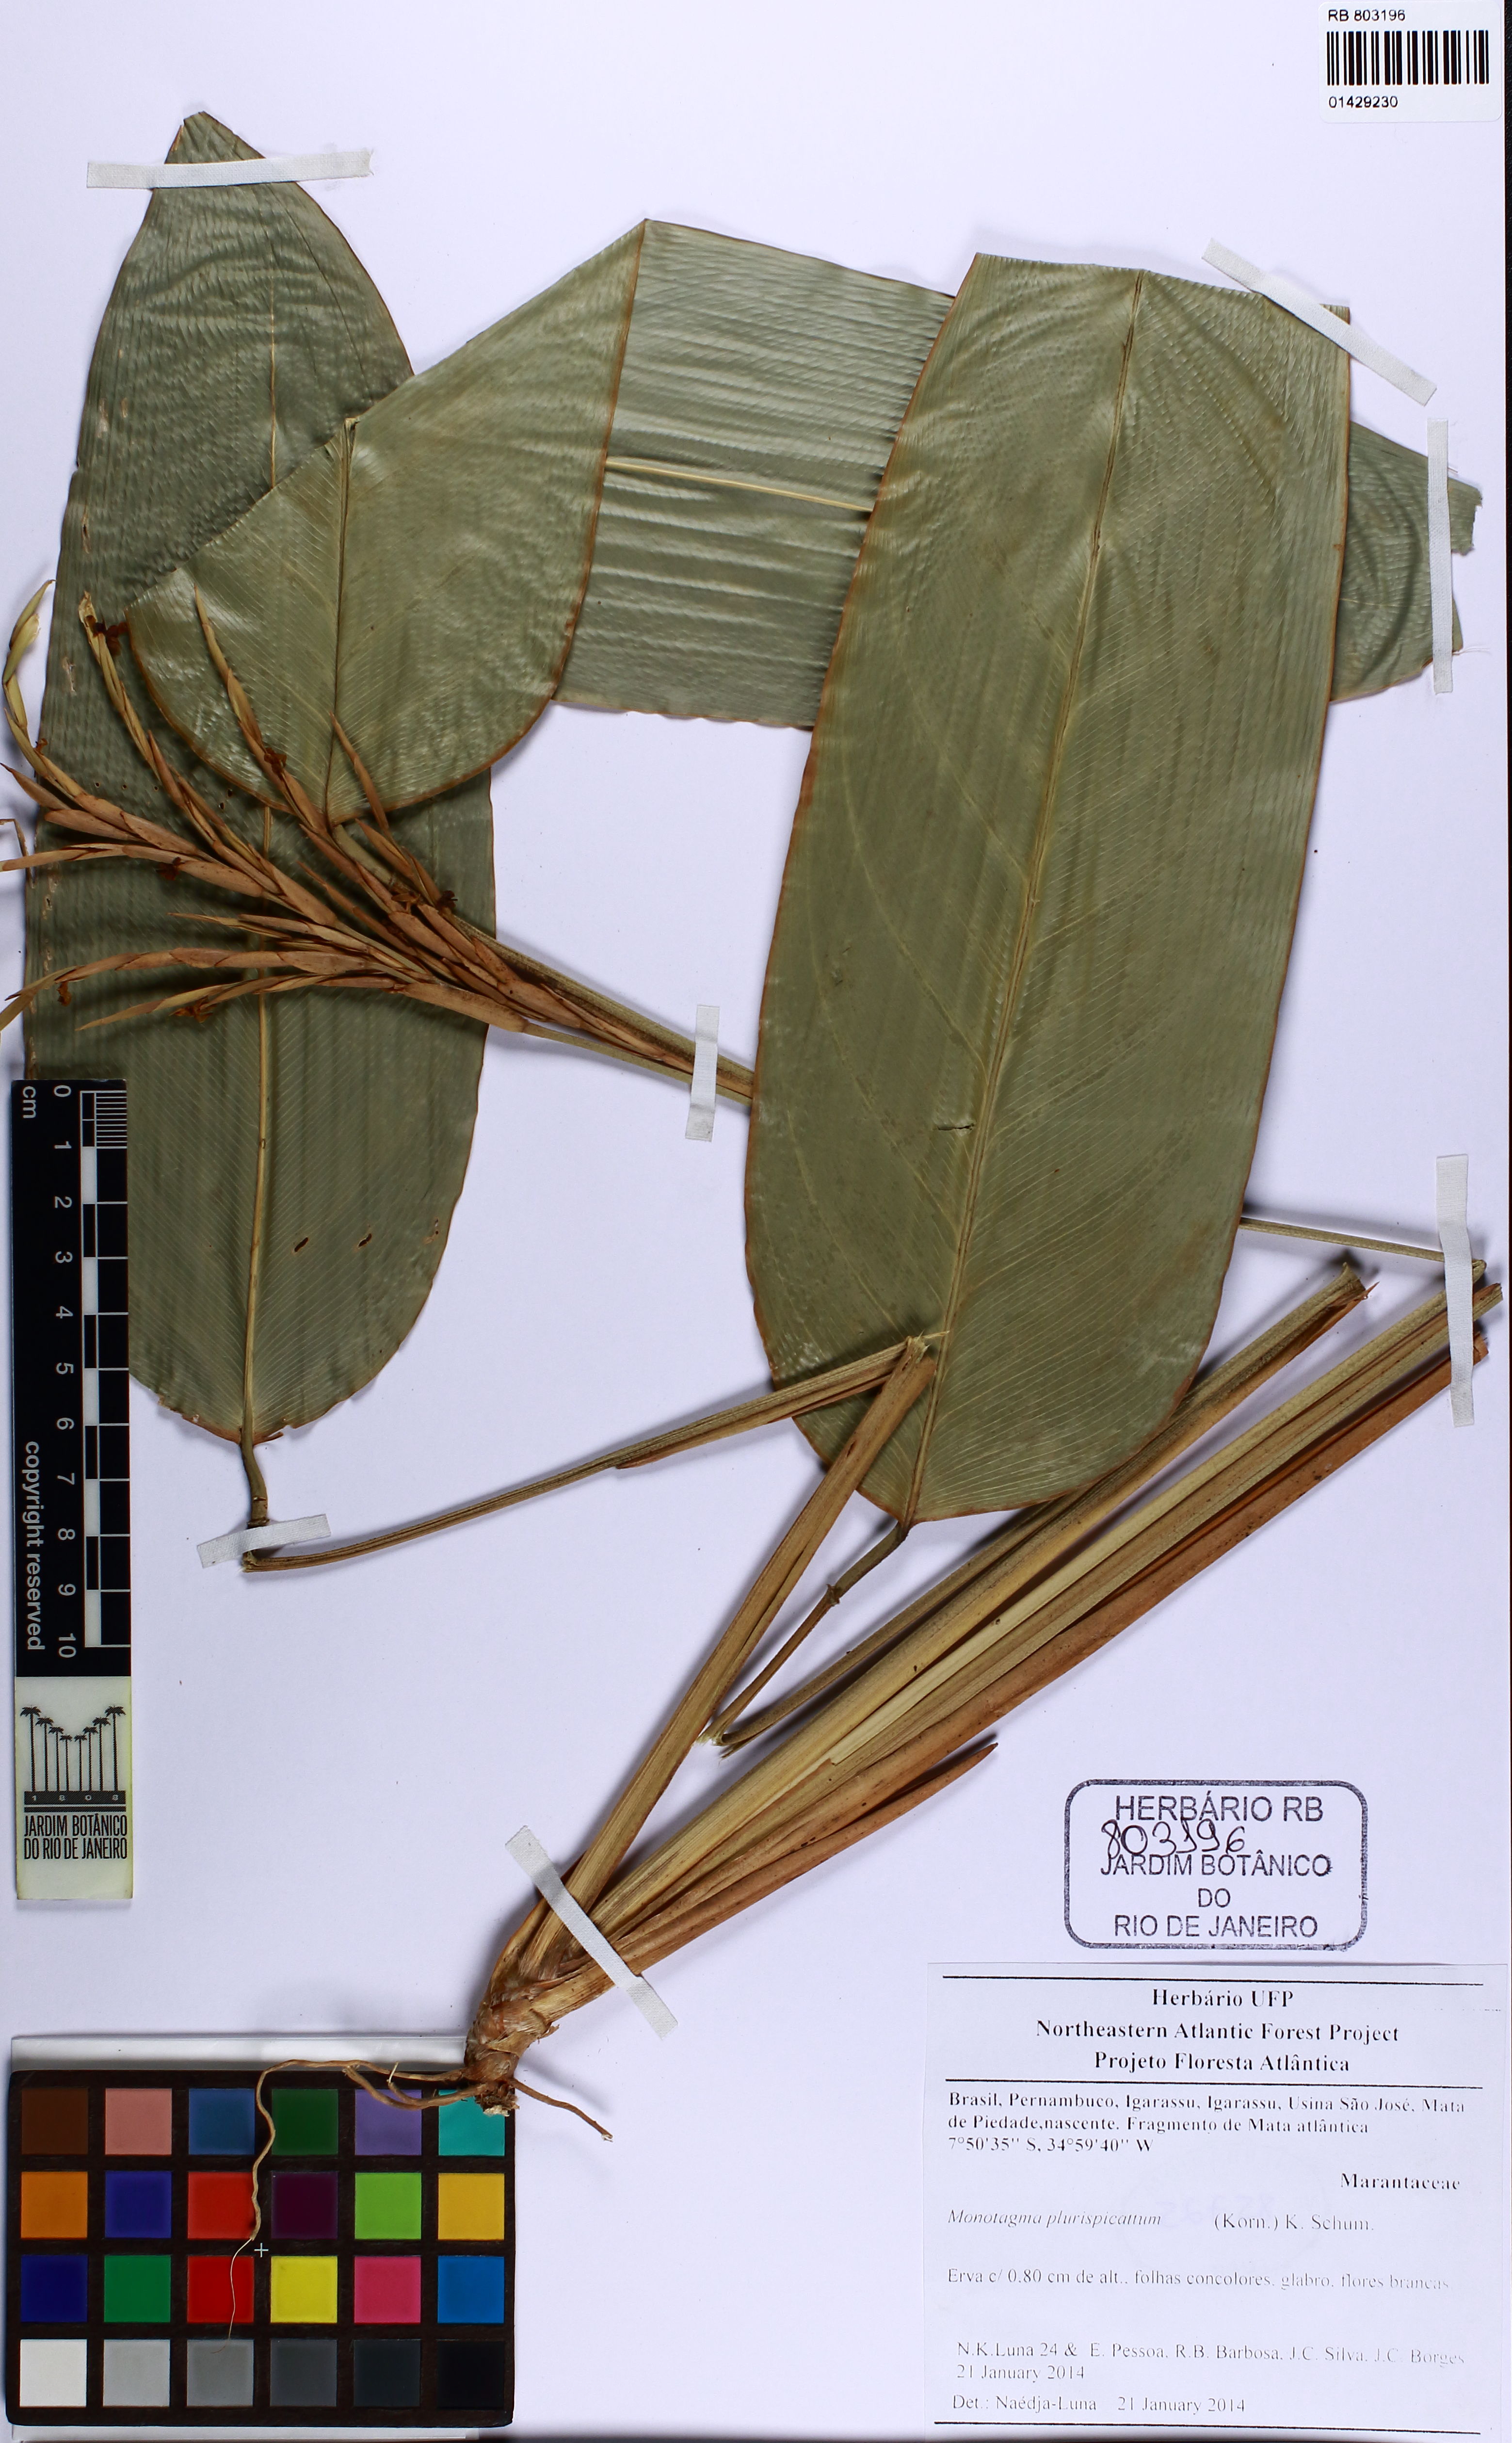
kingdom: Plantae
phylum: Tracheophyta
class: Liliopsida
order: Zingiberales
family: Marantaceae
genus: Monotagma
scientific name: Monotagma plurispicatum
